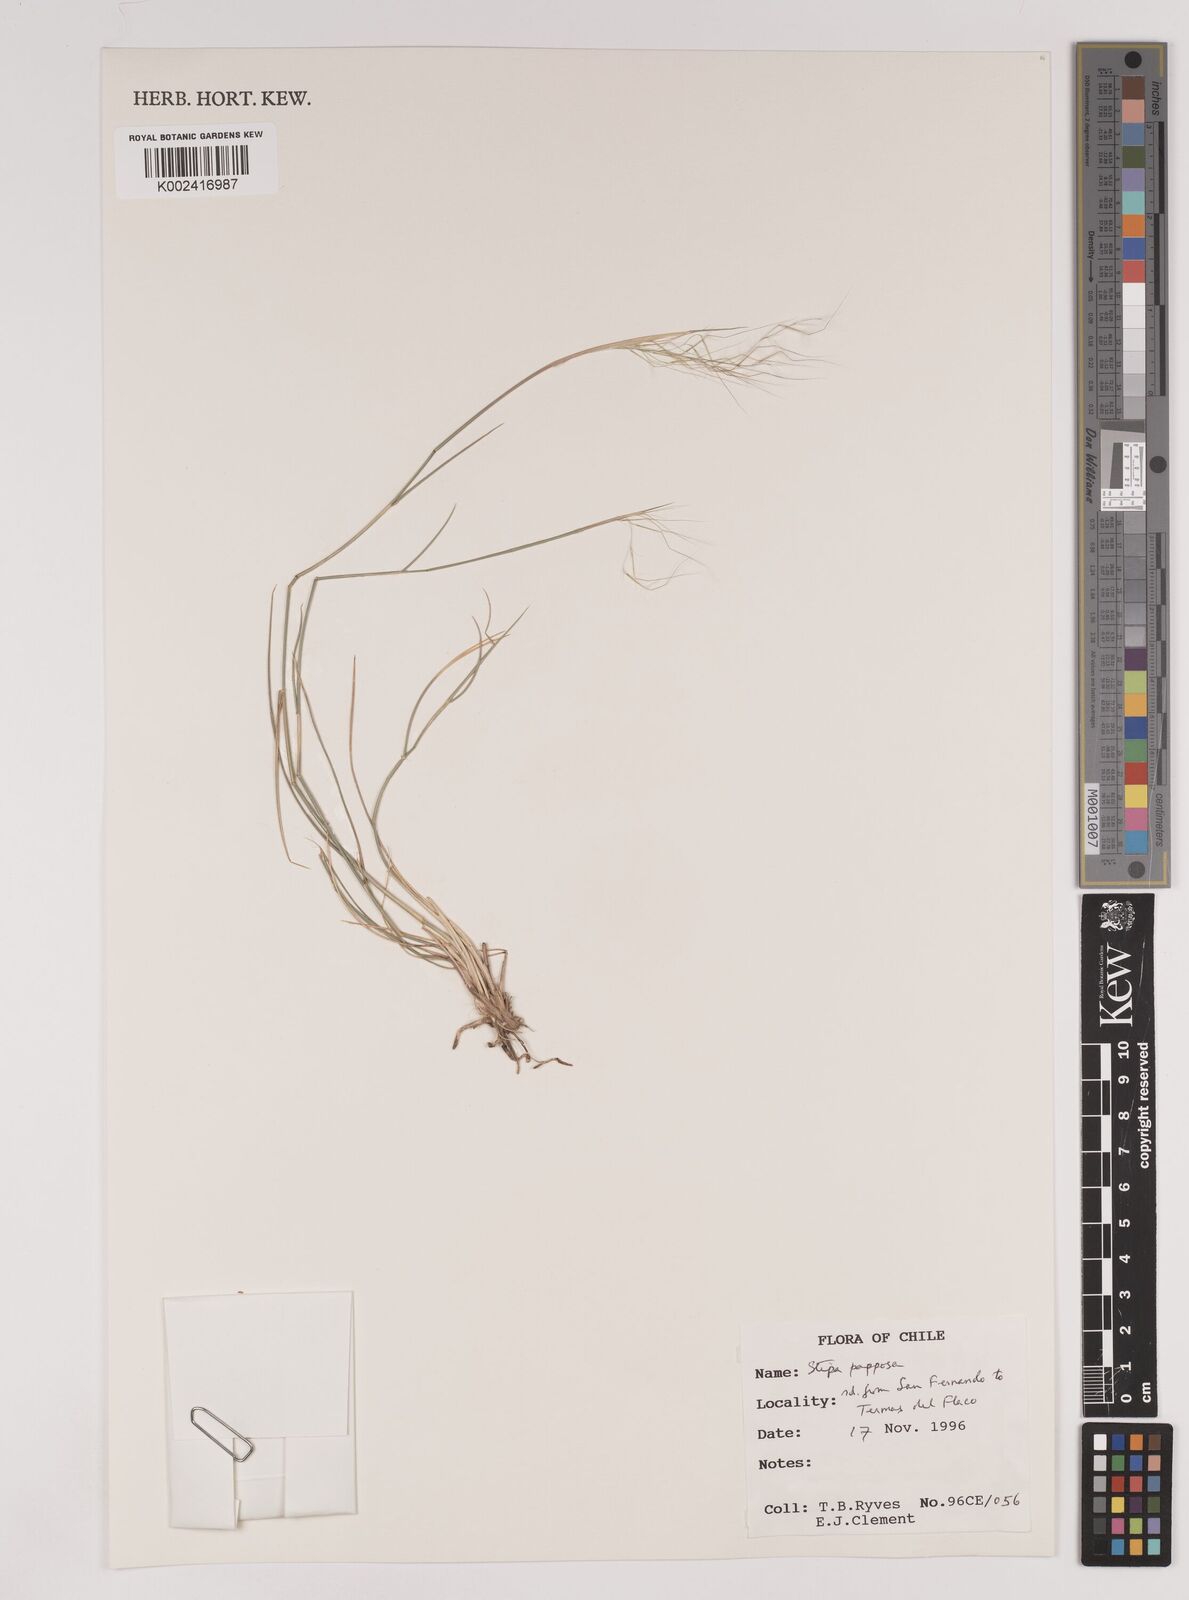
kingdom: Plantae
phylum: Tracheophyta
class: Liliopsida
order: Poales
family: Poaceae
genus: Jarava
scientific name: Jarava plumosa
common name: South american rice grass
